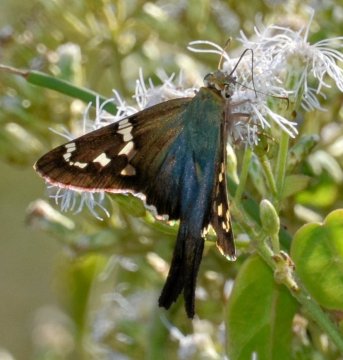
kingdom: Animalia
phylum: Arthropoda
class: Insecta
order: Lepidoptera
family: Hesperiidae
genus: Urbanus
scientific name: Urbanus proteus
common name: Long-tailed Skipper
